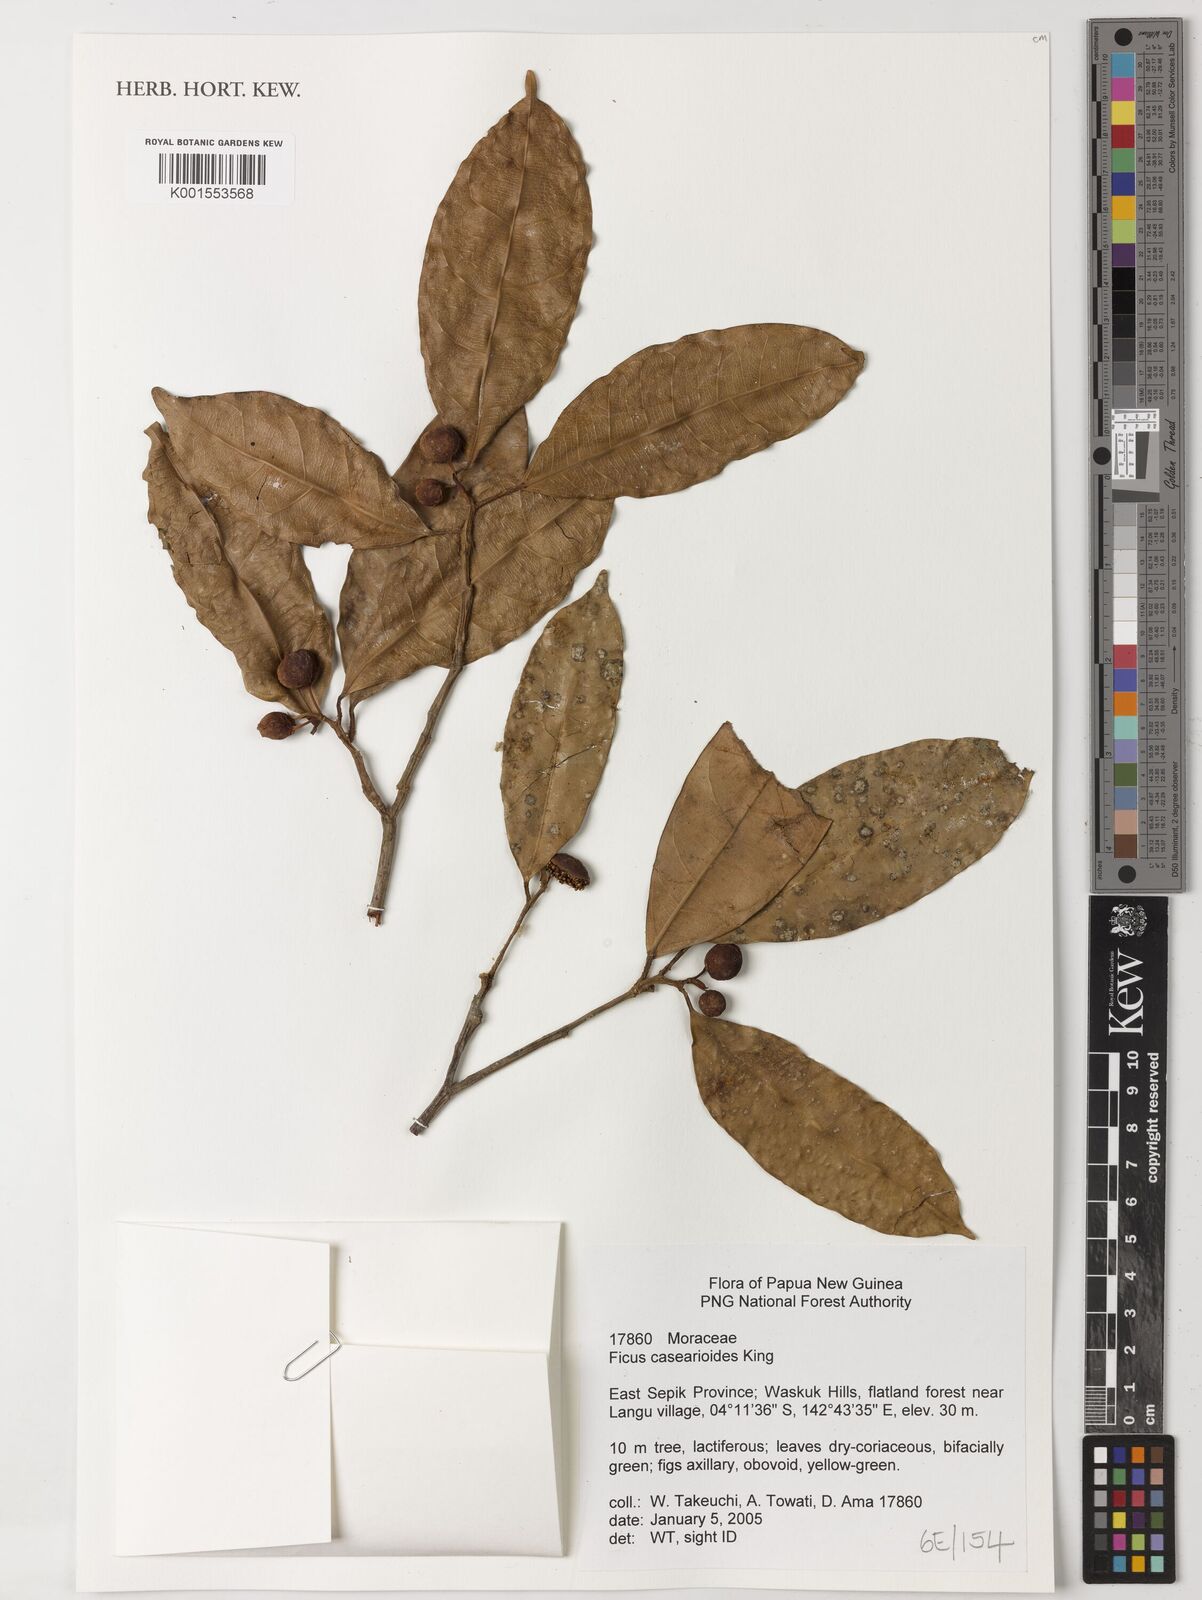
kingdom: Plantae
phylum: Tracheophyta
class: Magnoliopsida
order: Rosales
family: Moraceae
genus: Ficus
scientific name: Ficus casearioides
